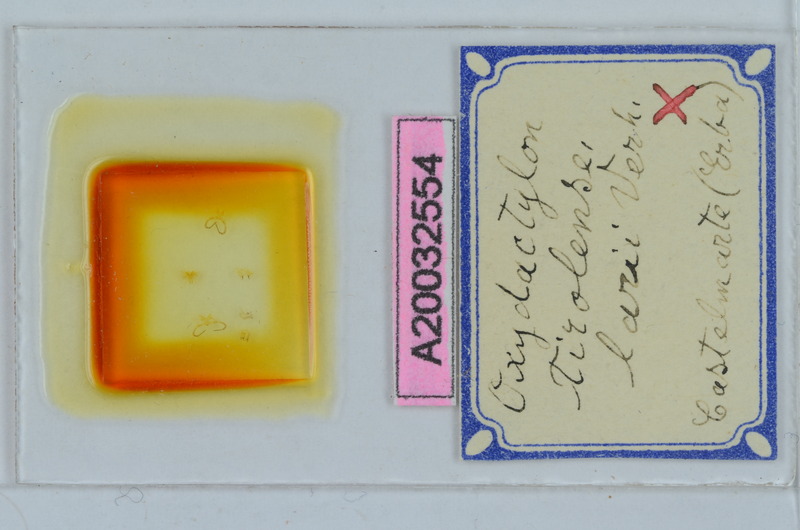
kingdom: Animalia
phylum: Arthropoda
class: Diplopoda
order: Chordeumatida
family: Craspedosomatidae
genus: Iulogona
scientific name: Iulogona tirolense
